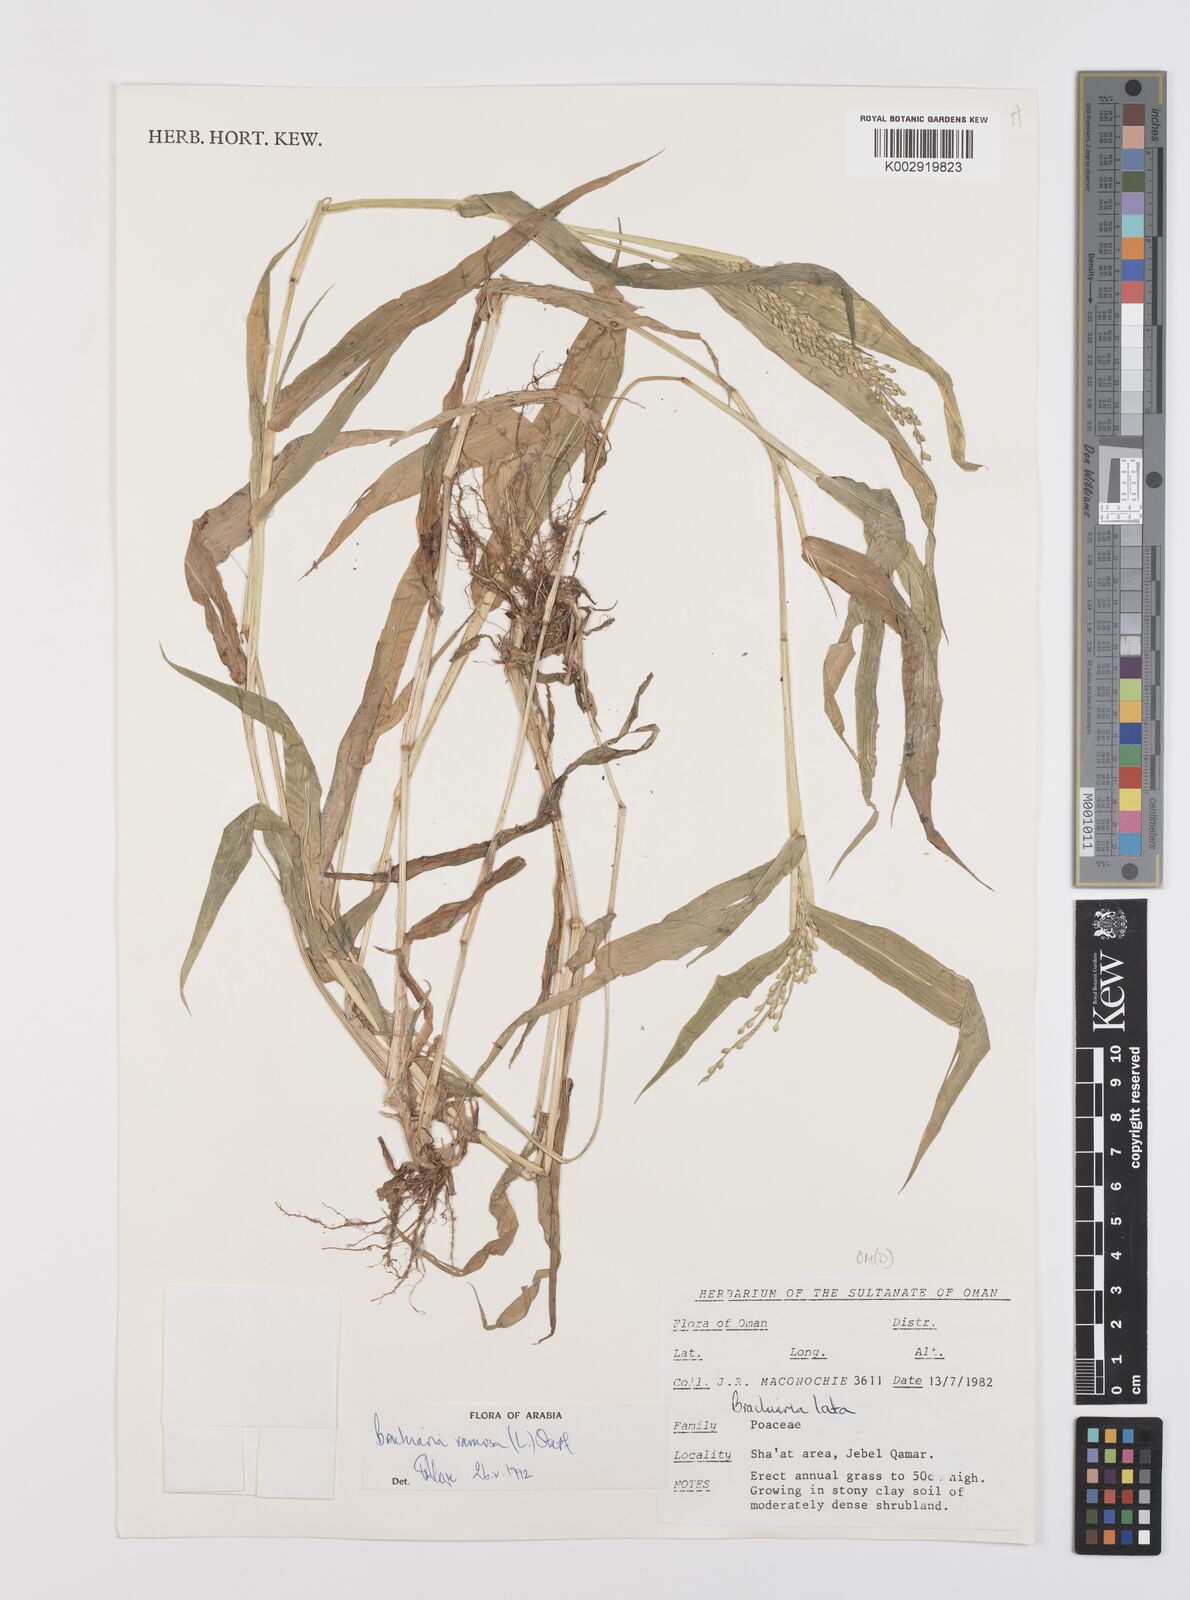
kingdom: Plantae
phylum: Tracheophyta
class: Liliopsida
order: Poales
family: Poaceae
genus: Urochloa
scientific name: Urochloa ramosa
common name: Browntop millet
